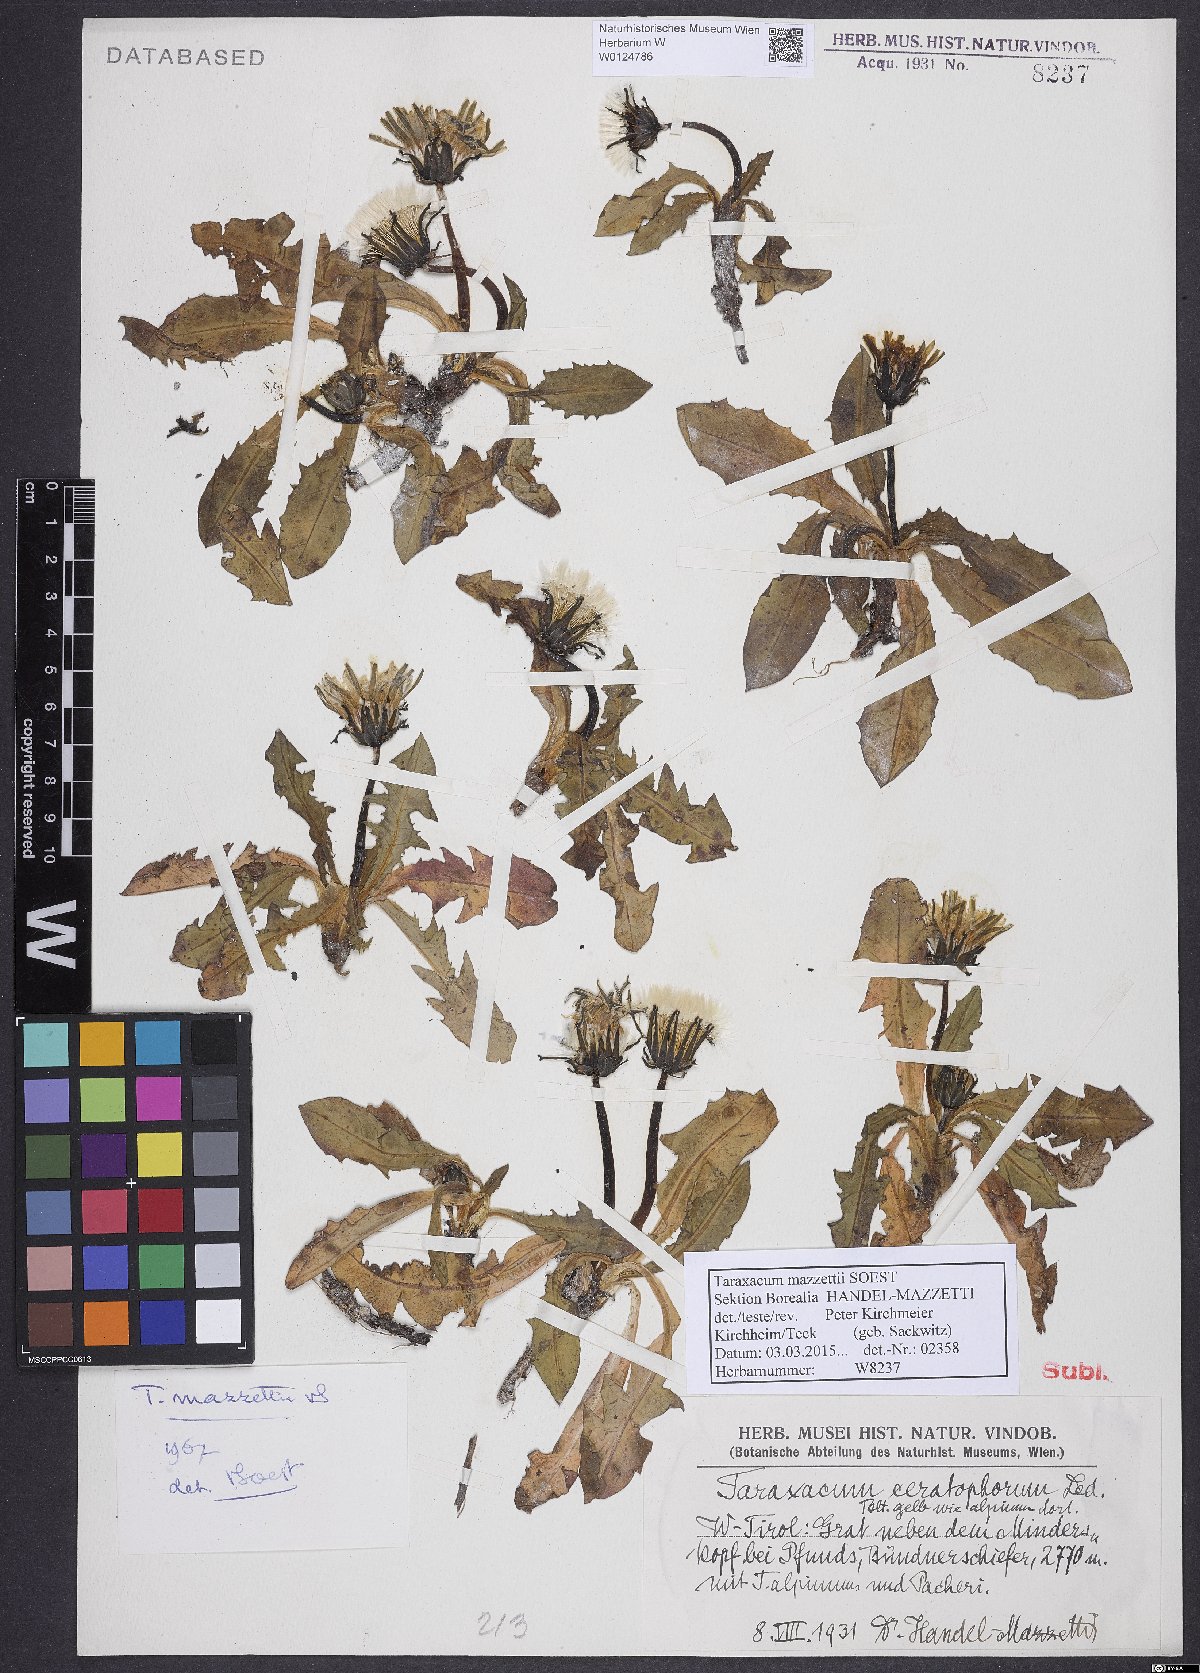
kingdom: Plantae
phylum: Tracheophyta
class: Magnoliopsida
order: Asterales
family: Asteraceae
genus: Taraxacum
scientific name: Taraxacum mazzetii
